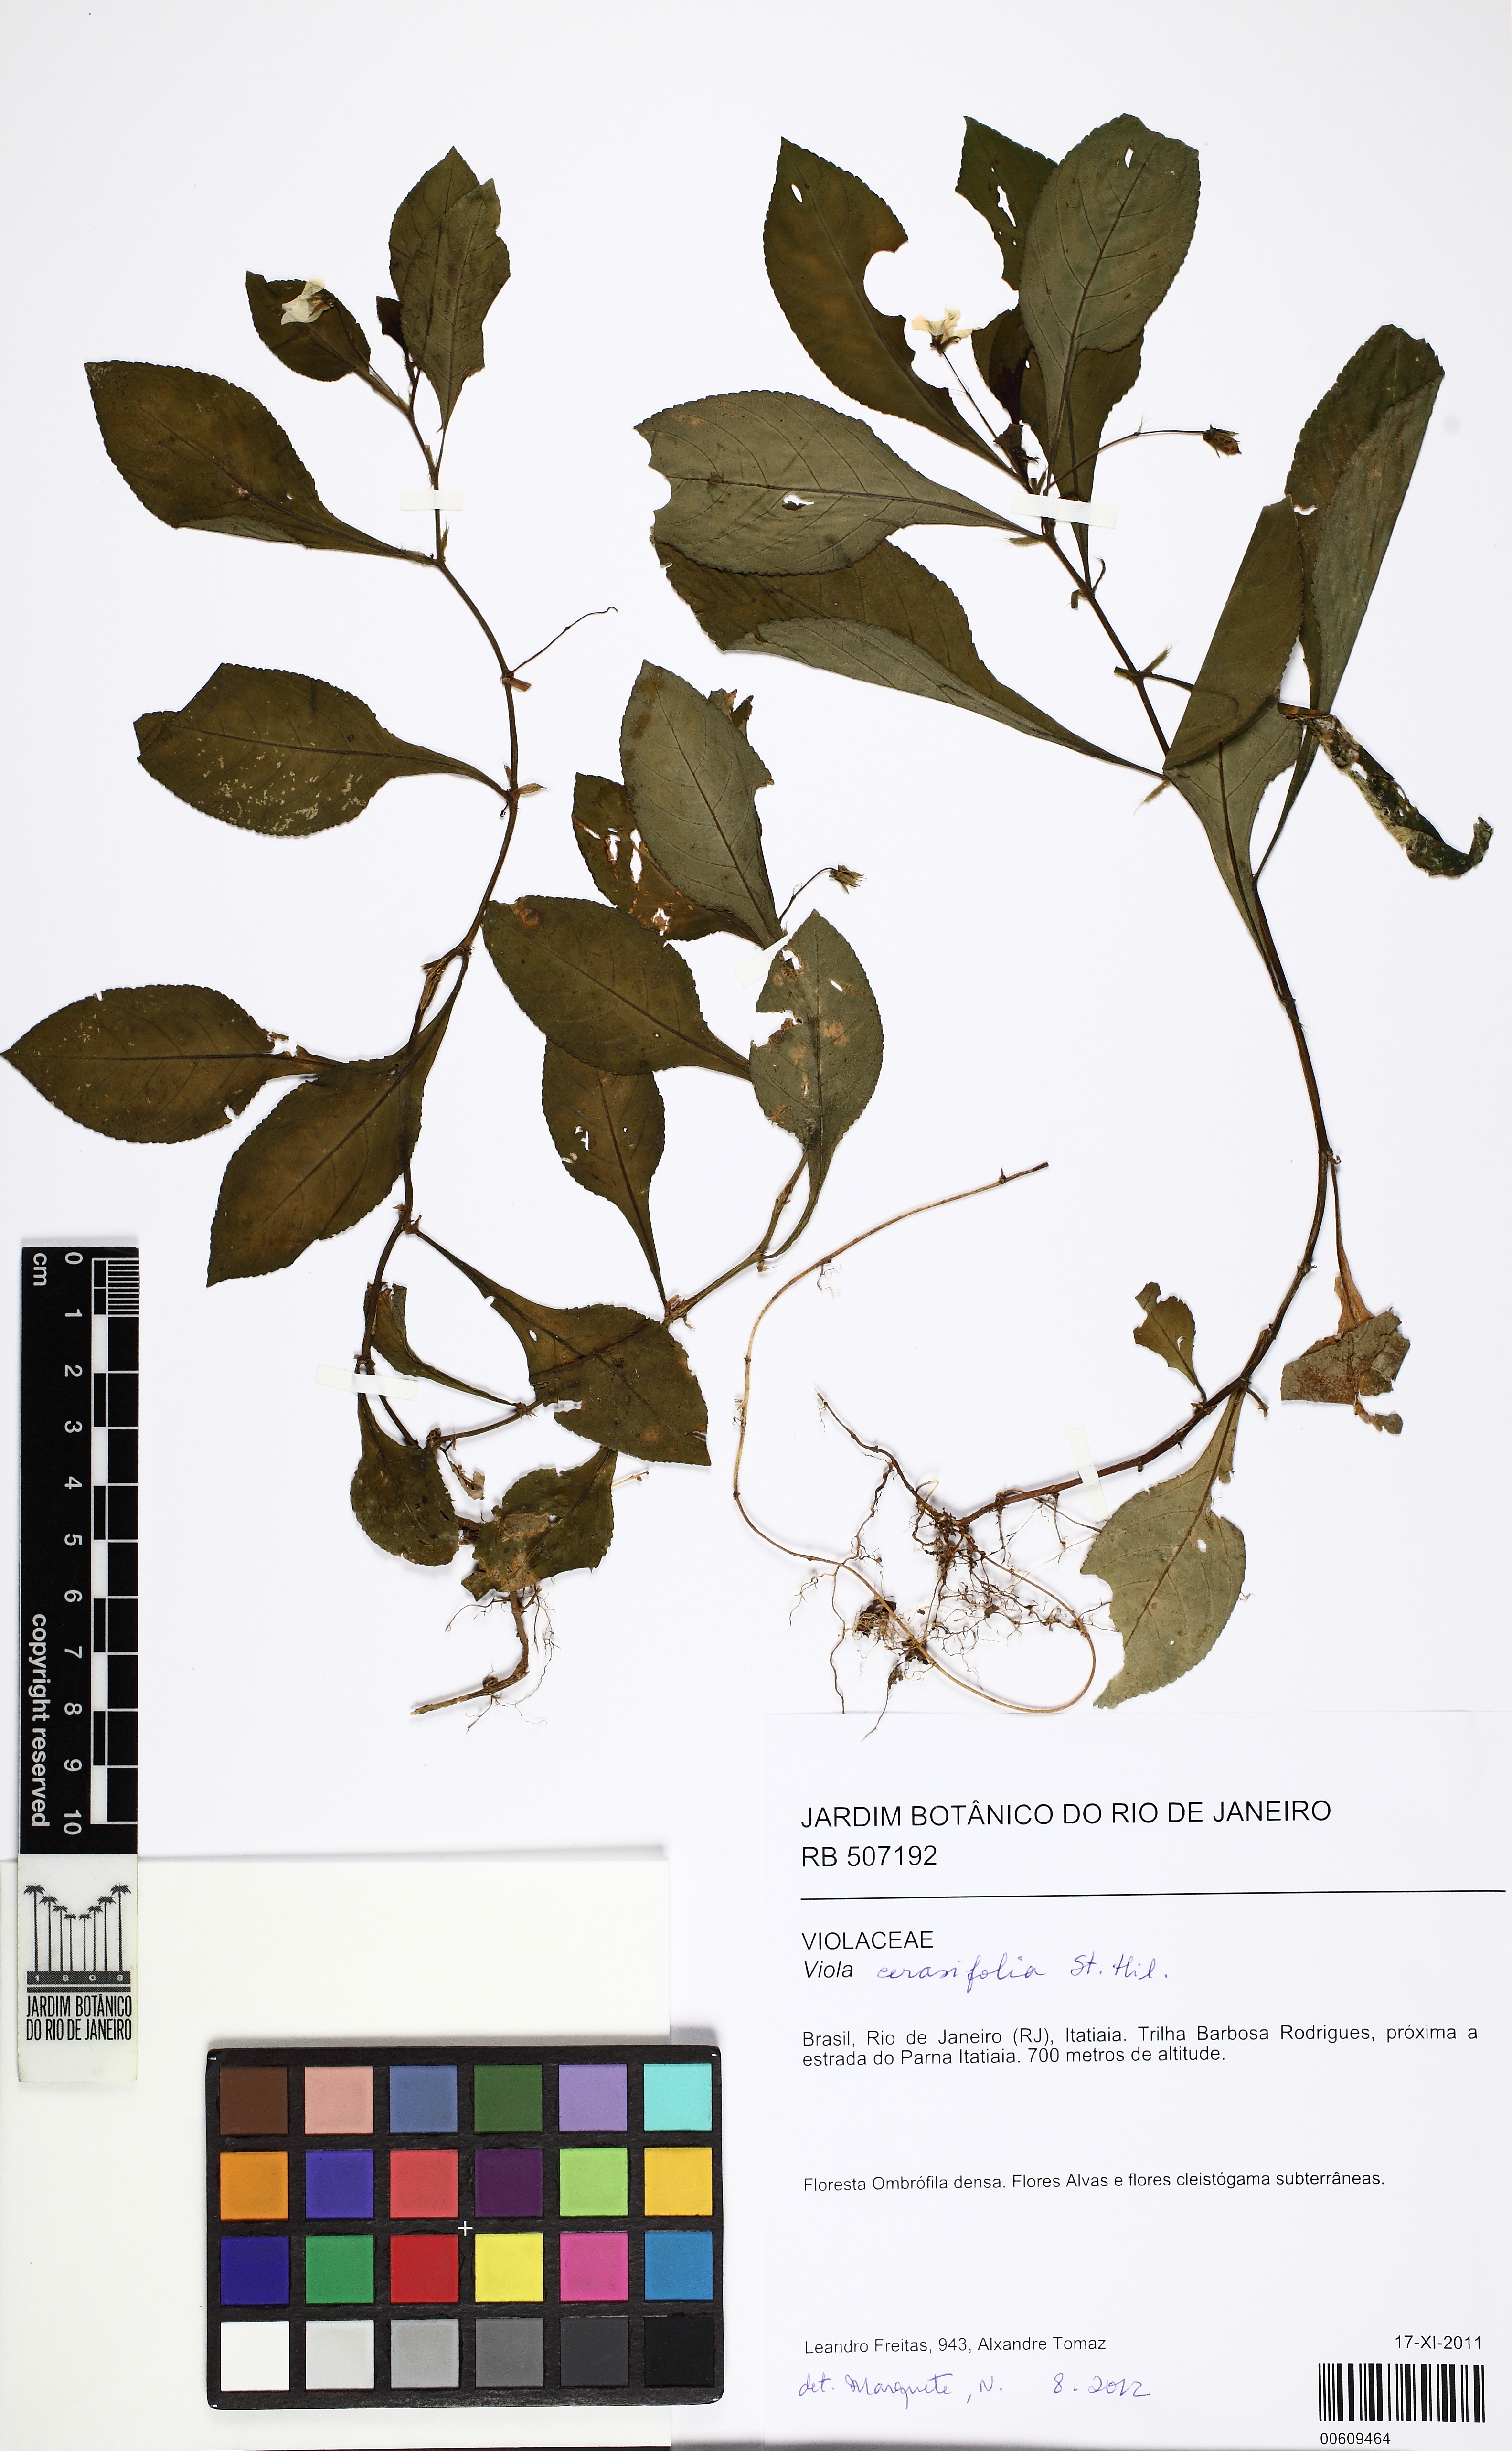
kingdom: Plantae
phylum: Tracheophyta
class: Magnoliopsida
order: Malpighiales
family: Violaceae
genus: Viola
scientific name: Viola
